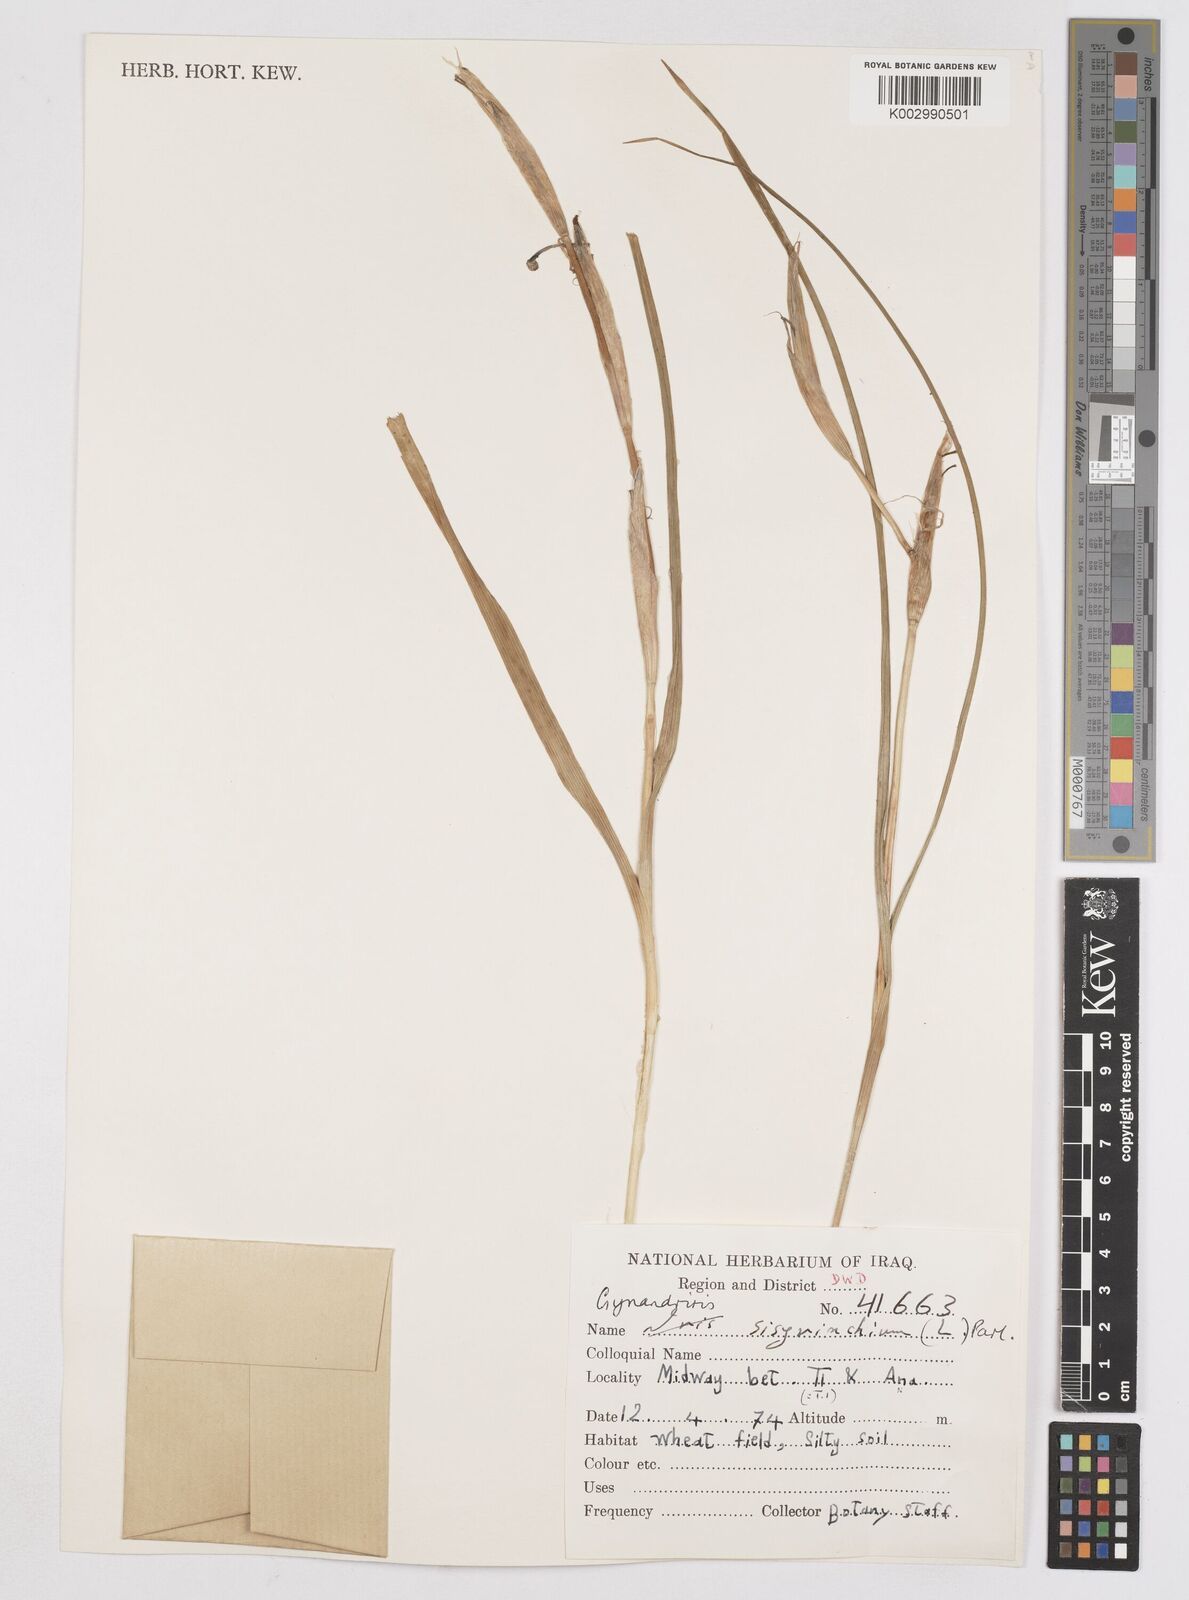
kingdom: Plantae
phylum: Tracheophyta
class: Liliopsida
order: Asparagales
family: Iridaceae
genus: Moraea
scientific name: Moraea sisyrinchium
